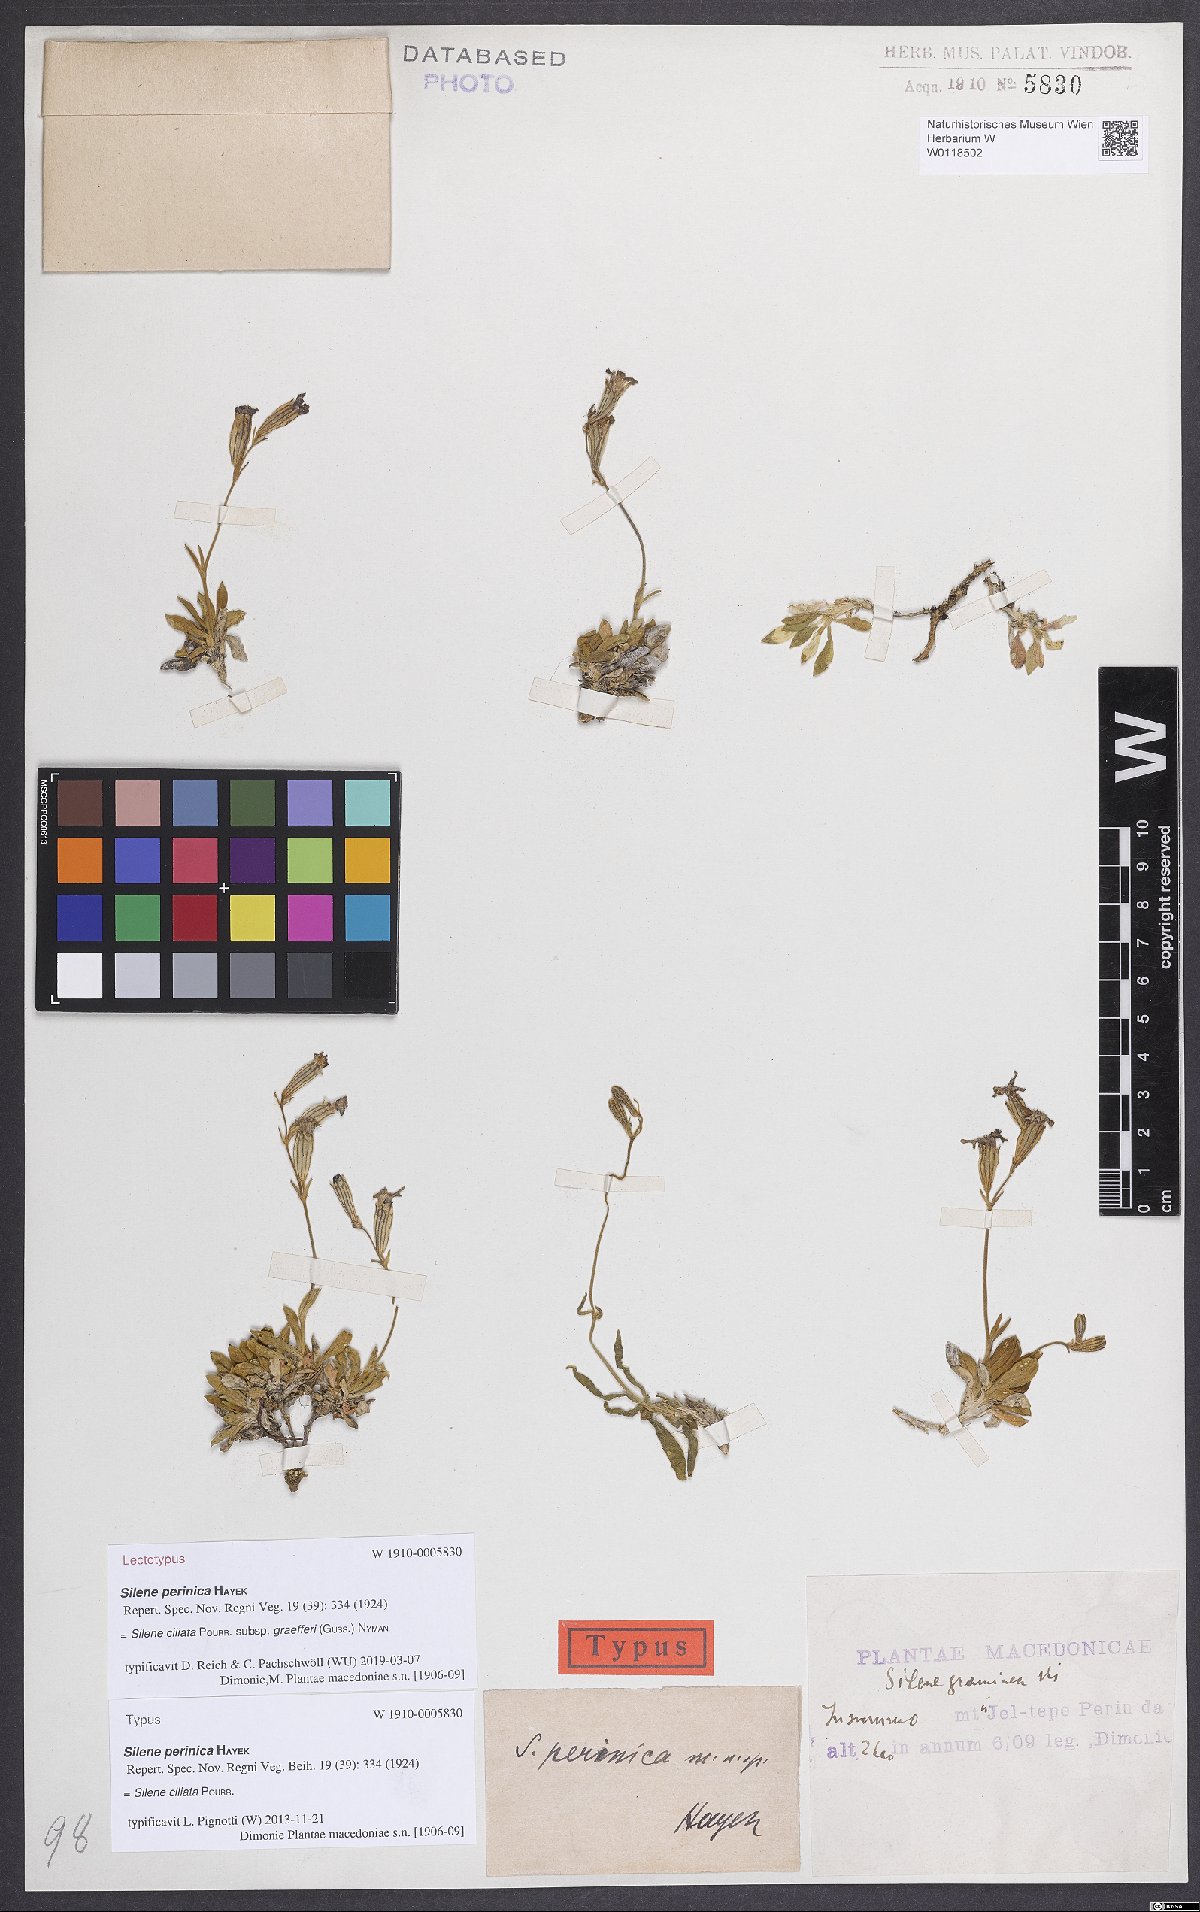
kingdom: Plantae
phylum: Tracheophyta
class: Magnoliopsida
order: Caryophyllales
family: Caryophyllaceae
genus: Silene
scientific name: Silene ciliata
